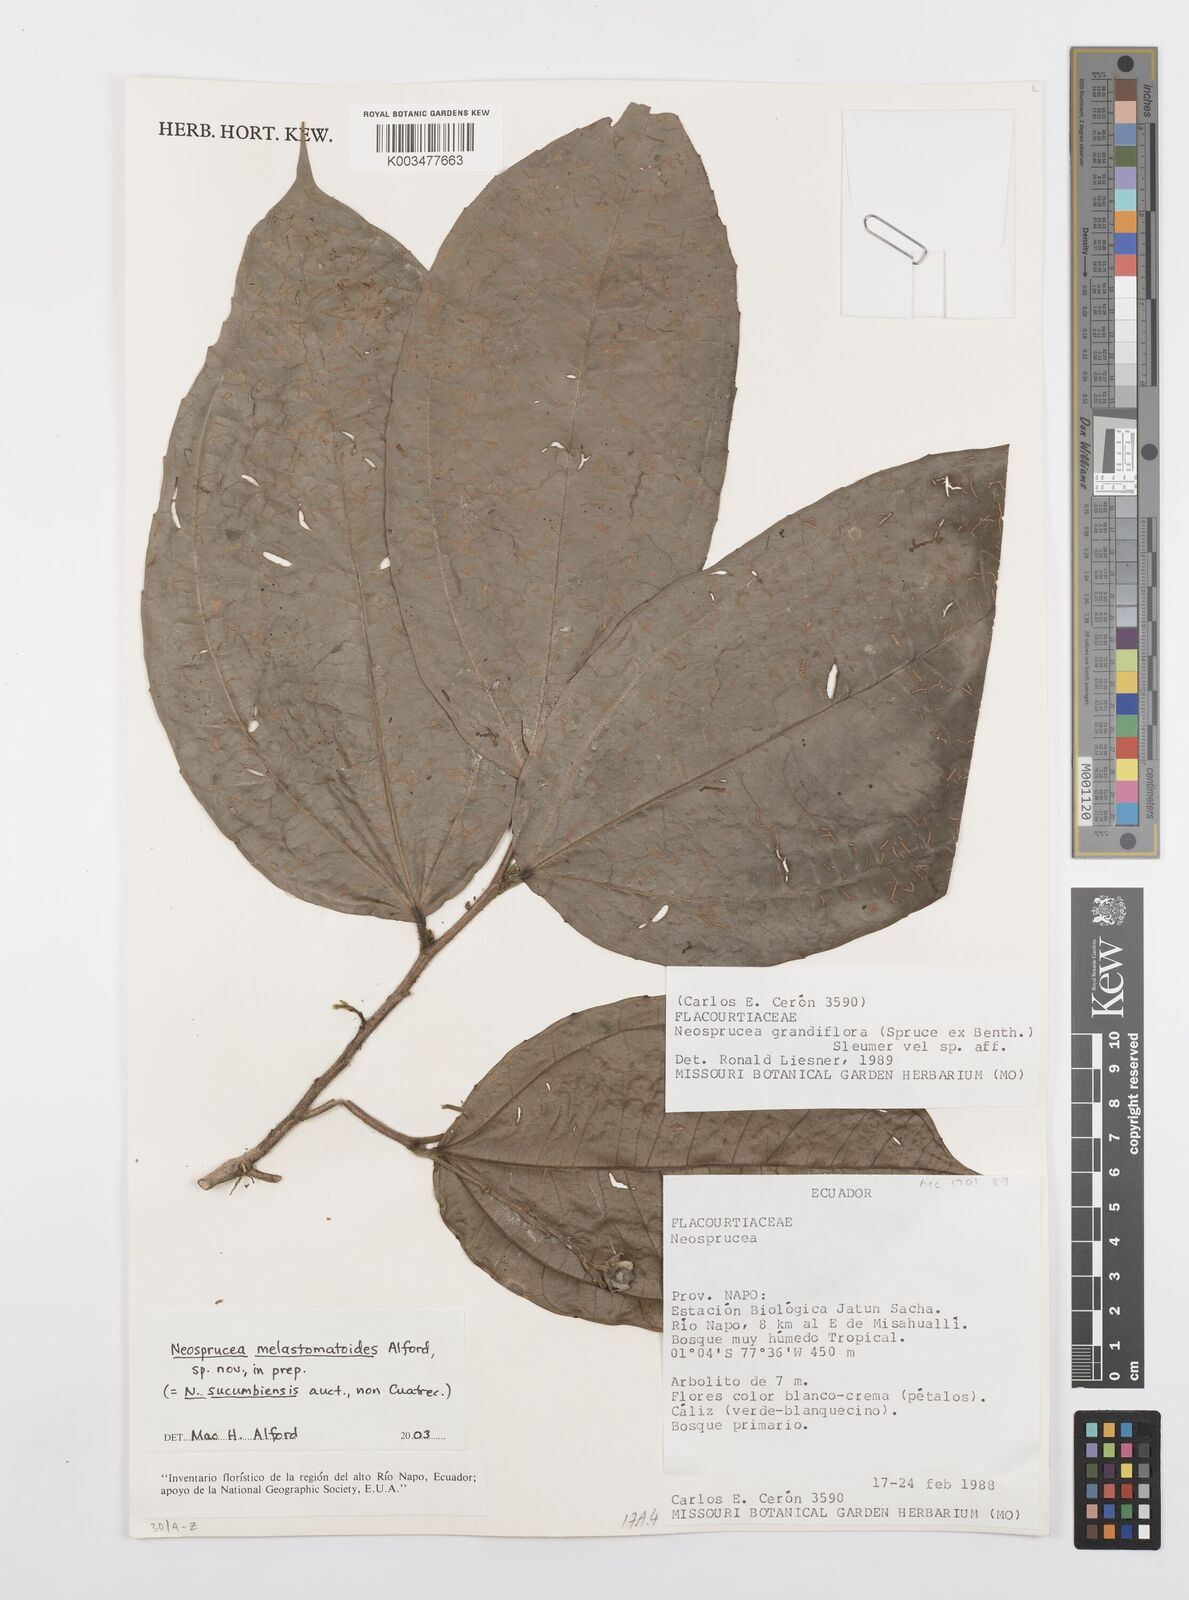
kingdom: Plantae
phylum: Tracheophyta
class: Magnoliopsida
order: Malpighiales
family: Salicaceae
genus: Neosprucea
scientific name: Neosprucea sucumbiensis
